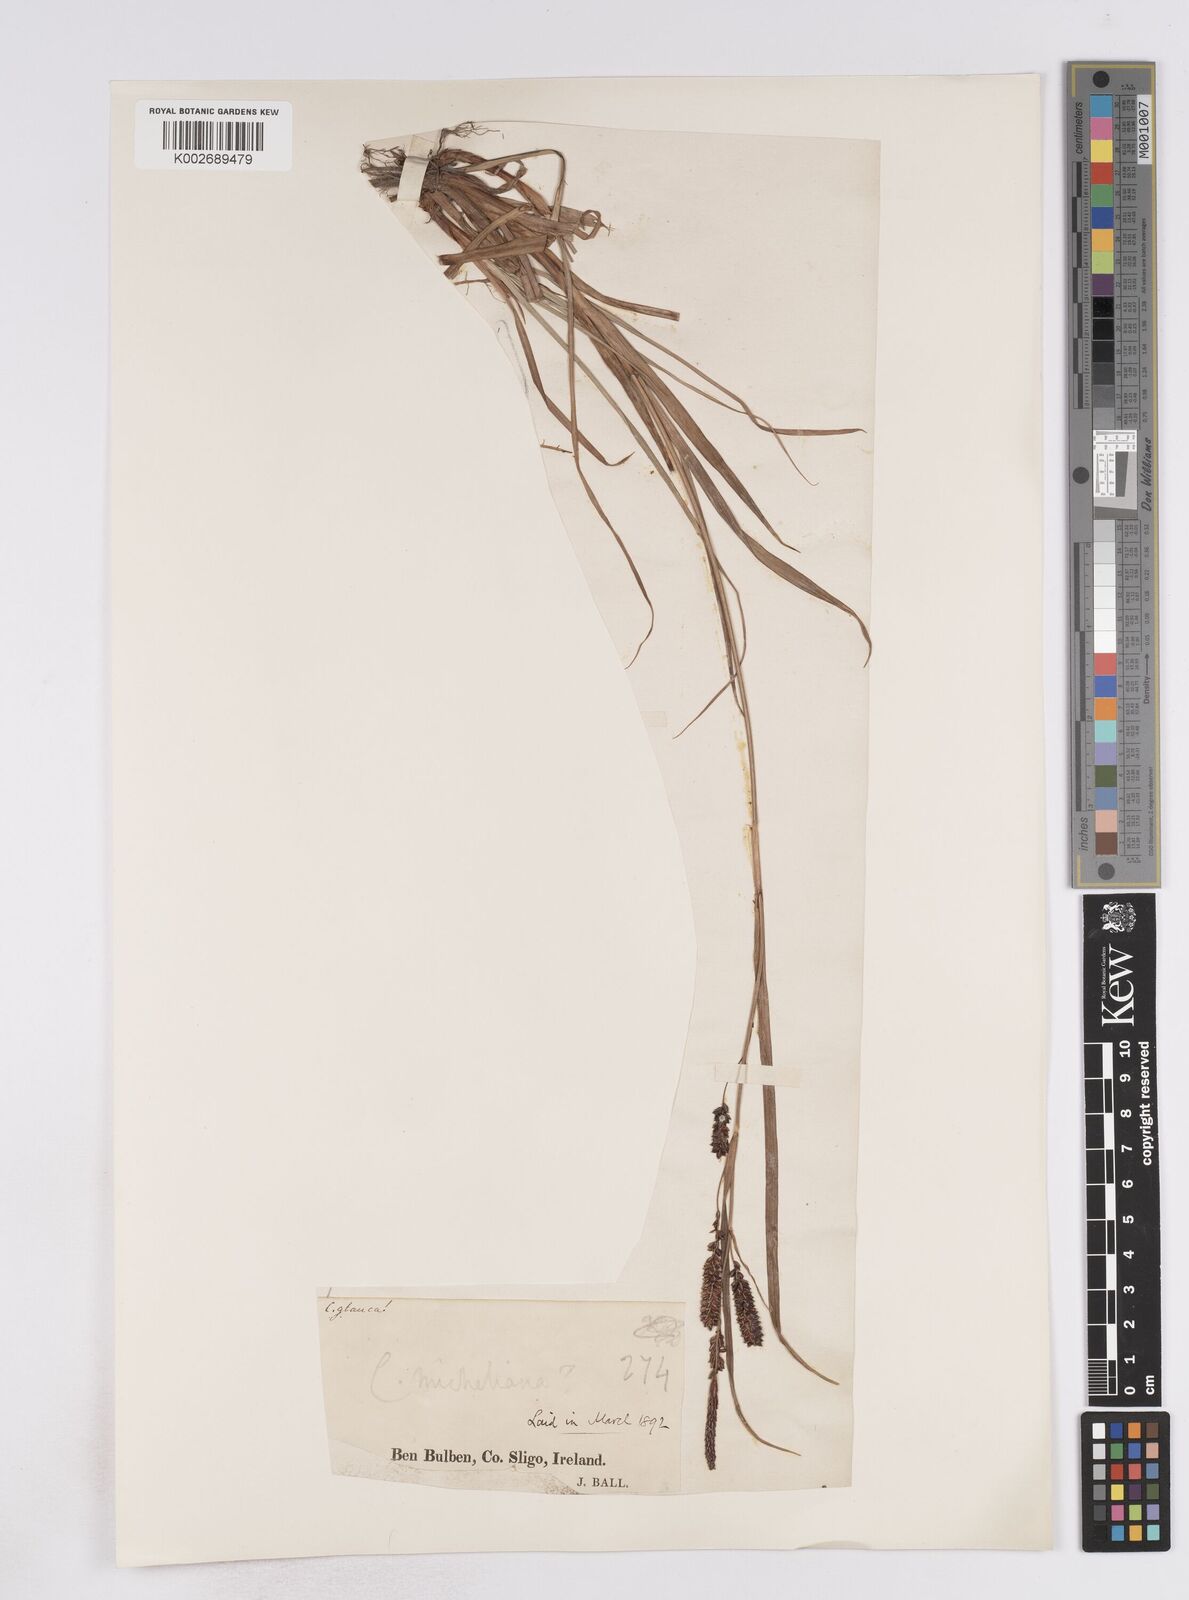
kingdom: Plantae
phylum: Tracheophyta
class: Liliopsida
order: Poales
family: Cyperaceae
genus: Carex
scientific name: Carex flacca
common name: Glaucous sedge
